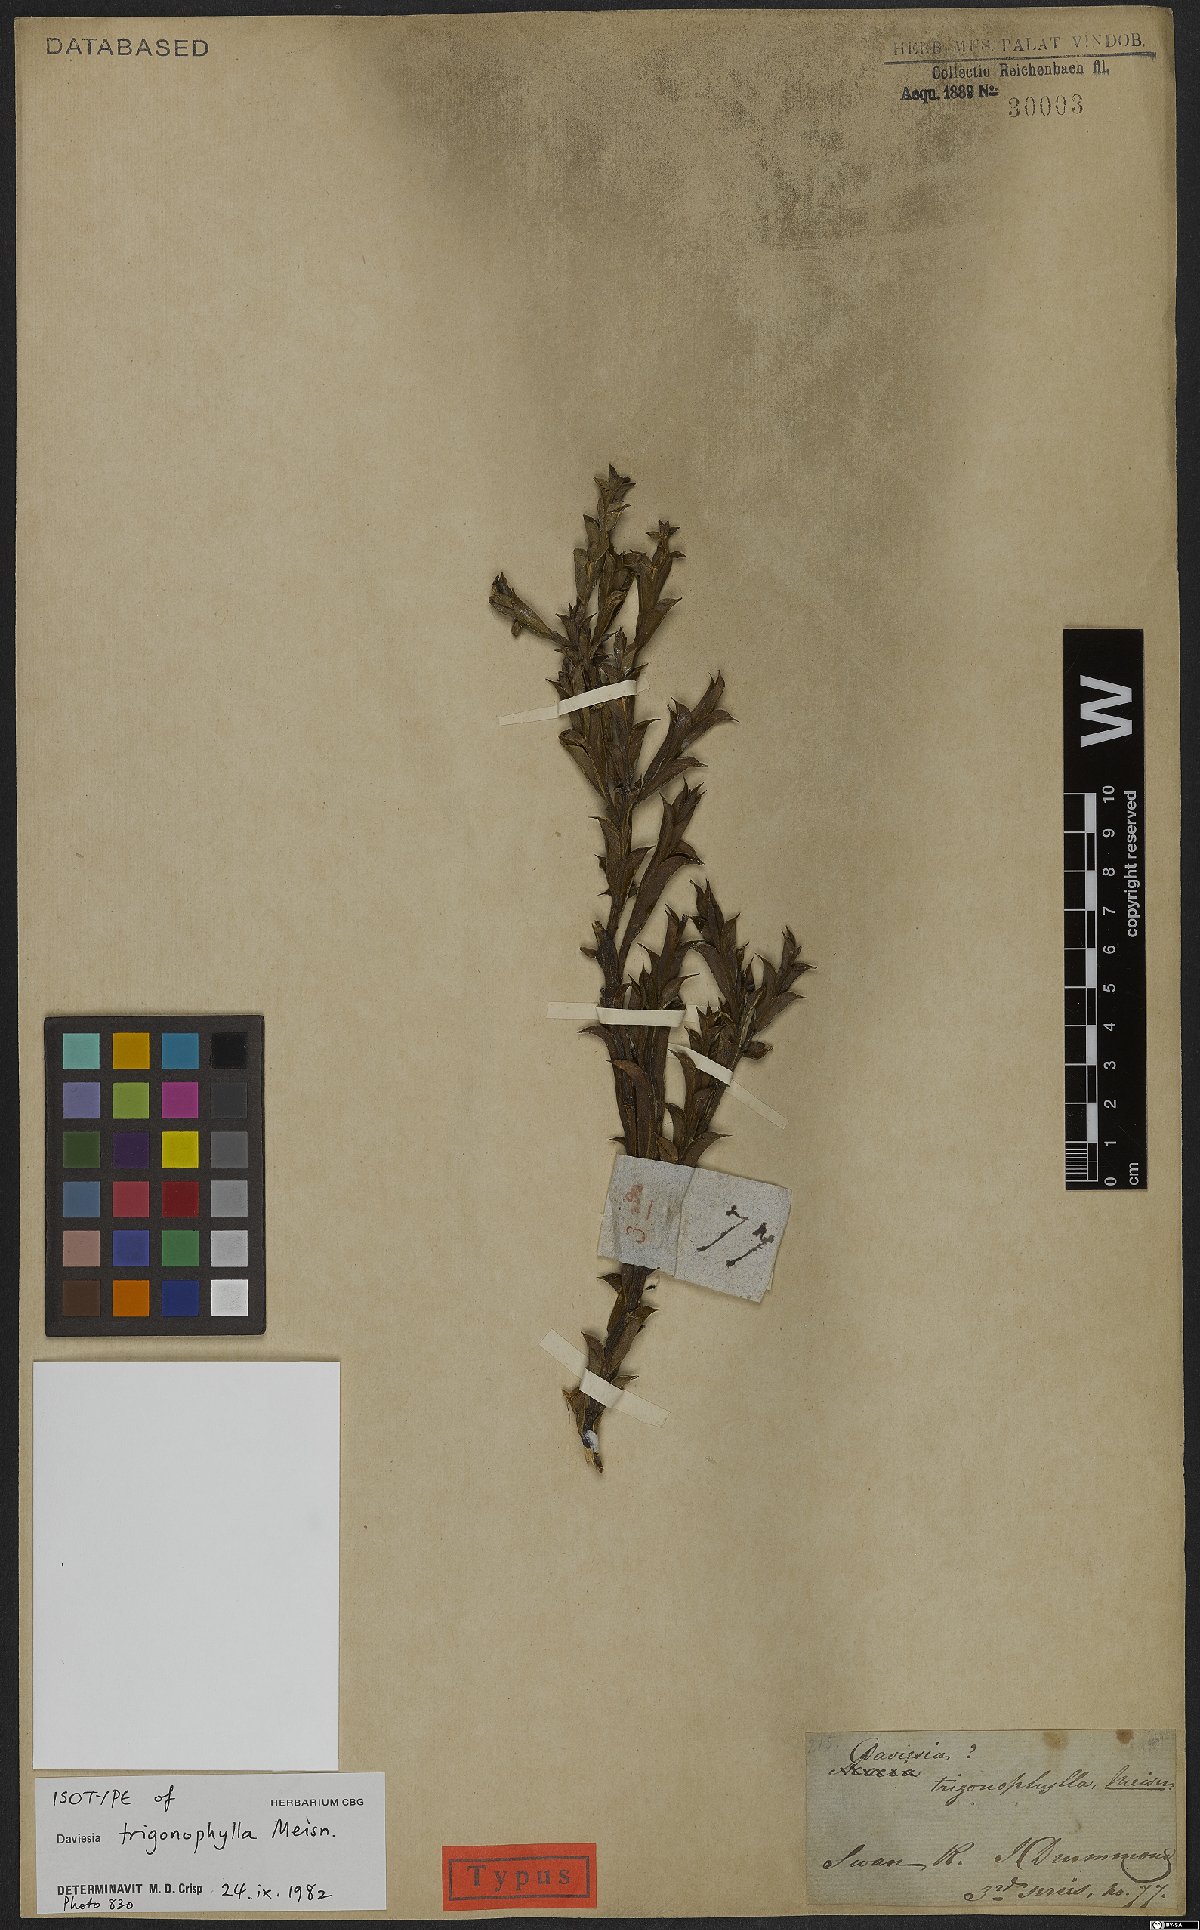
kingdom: Plantae
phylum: Tracheophyta
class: Magnoliopsida
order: Fabales
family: Fabaceae
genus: Daviesia
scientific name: Daviesia trigonophylla
